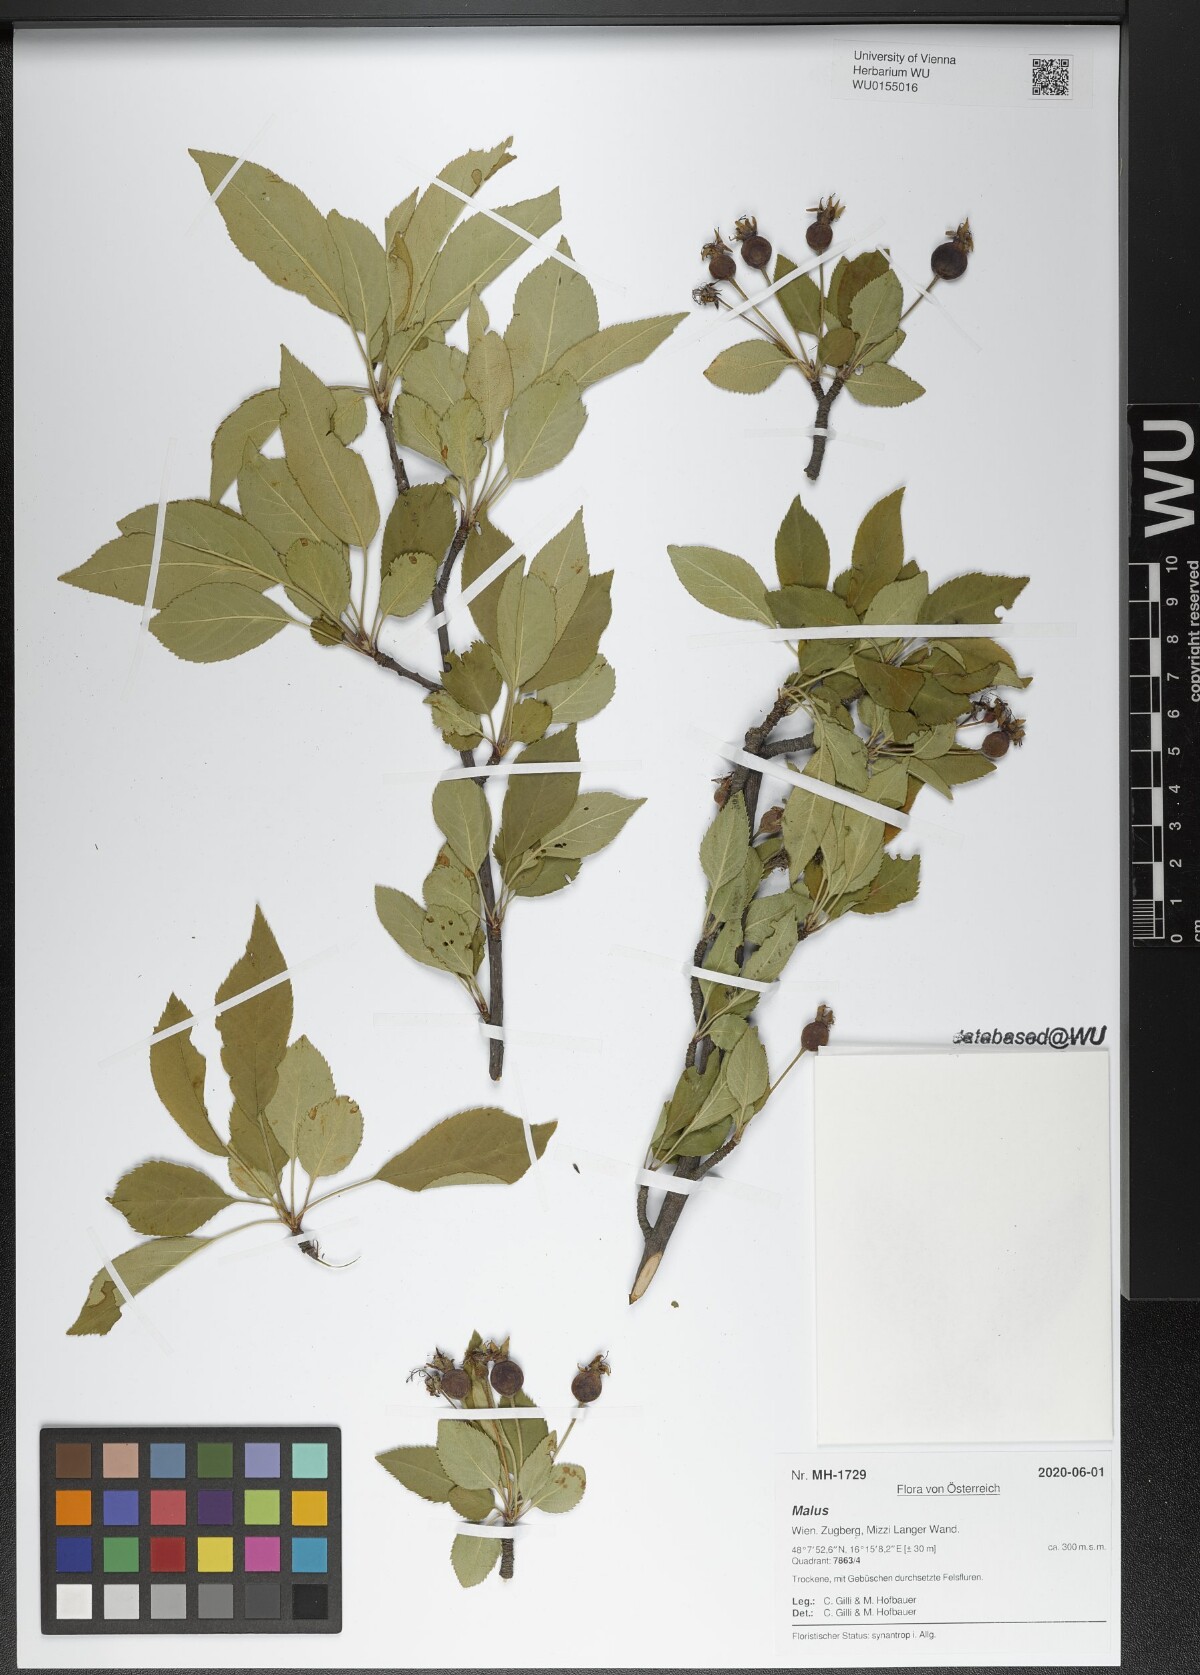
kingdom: Plantae
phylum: Tracheophyta
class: Magnoliopsida
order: Rosales
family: Rosaceae
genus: Malus
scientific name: Malus
